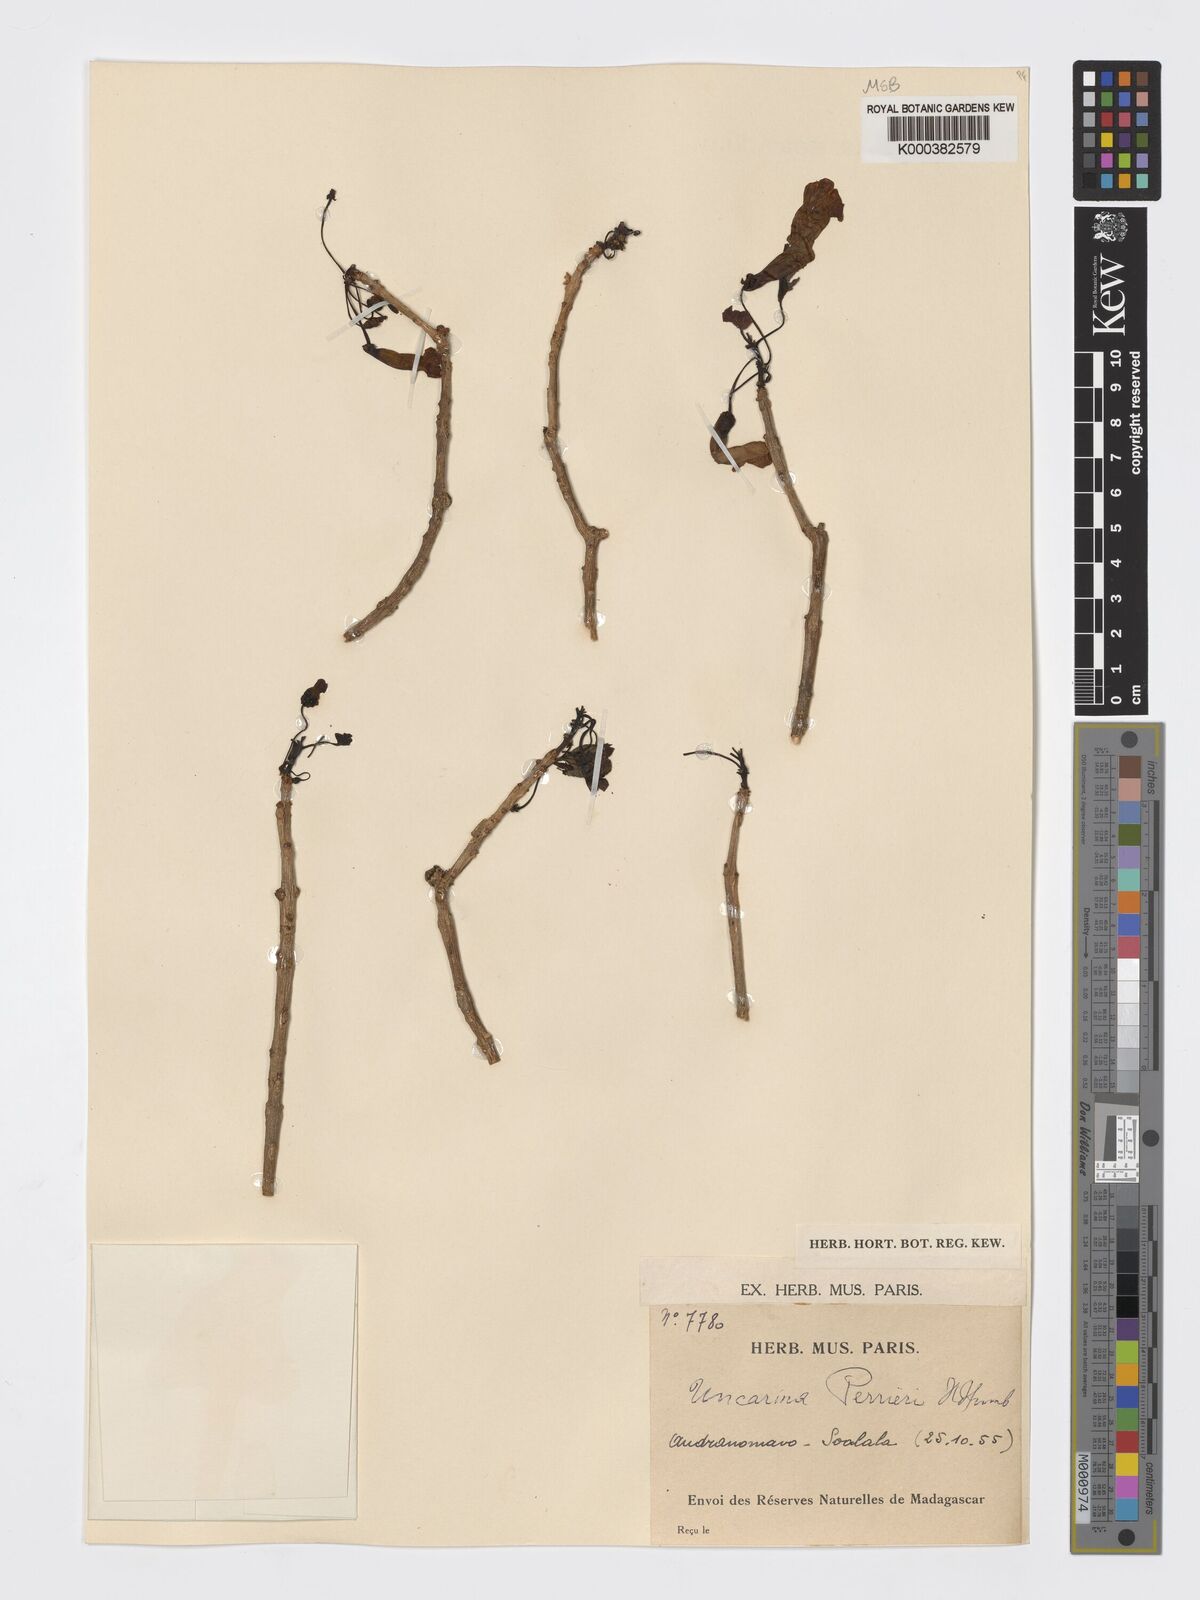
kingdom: Plantae
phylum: Tracheophyta
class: Magnoliopsida
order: Lamiales
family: Pedaliaceae
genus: Uncarina
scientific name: Uncarina perrieri
